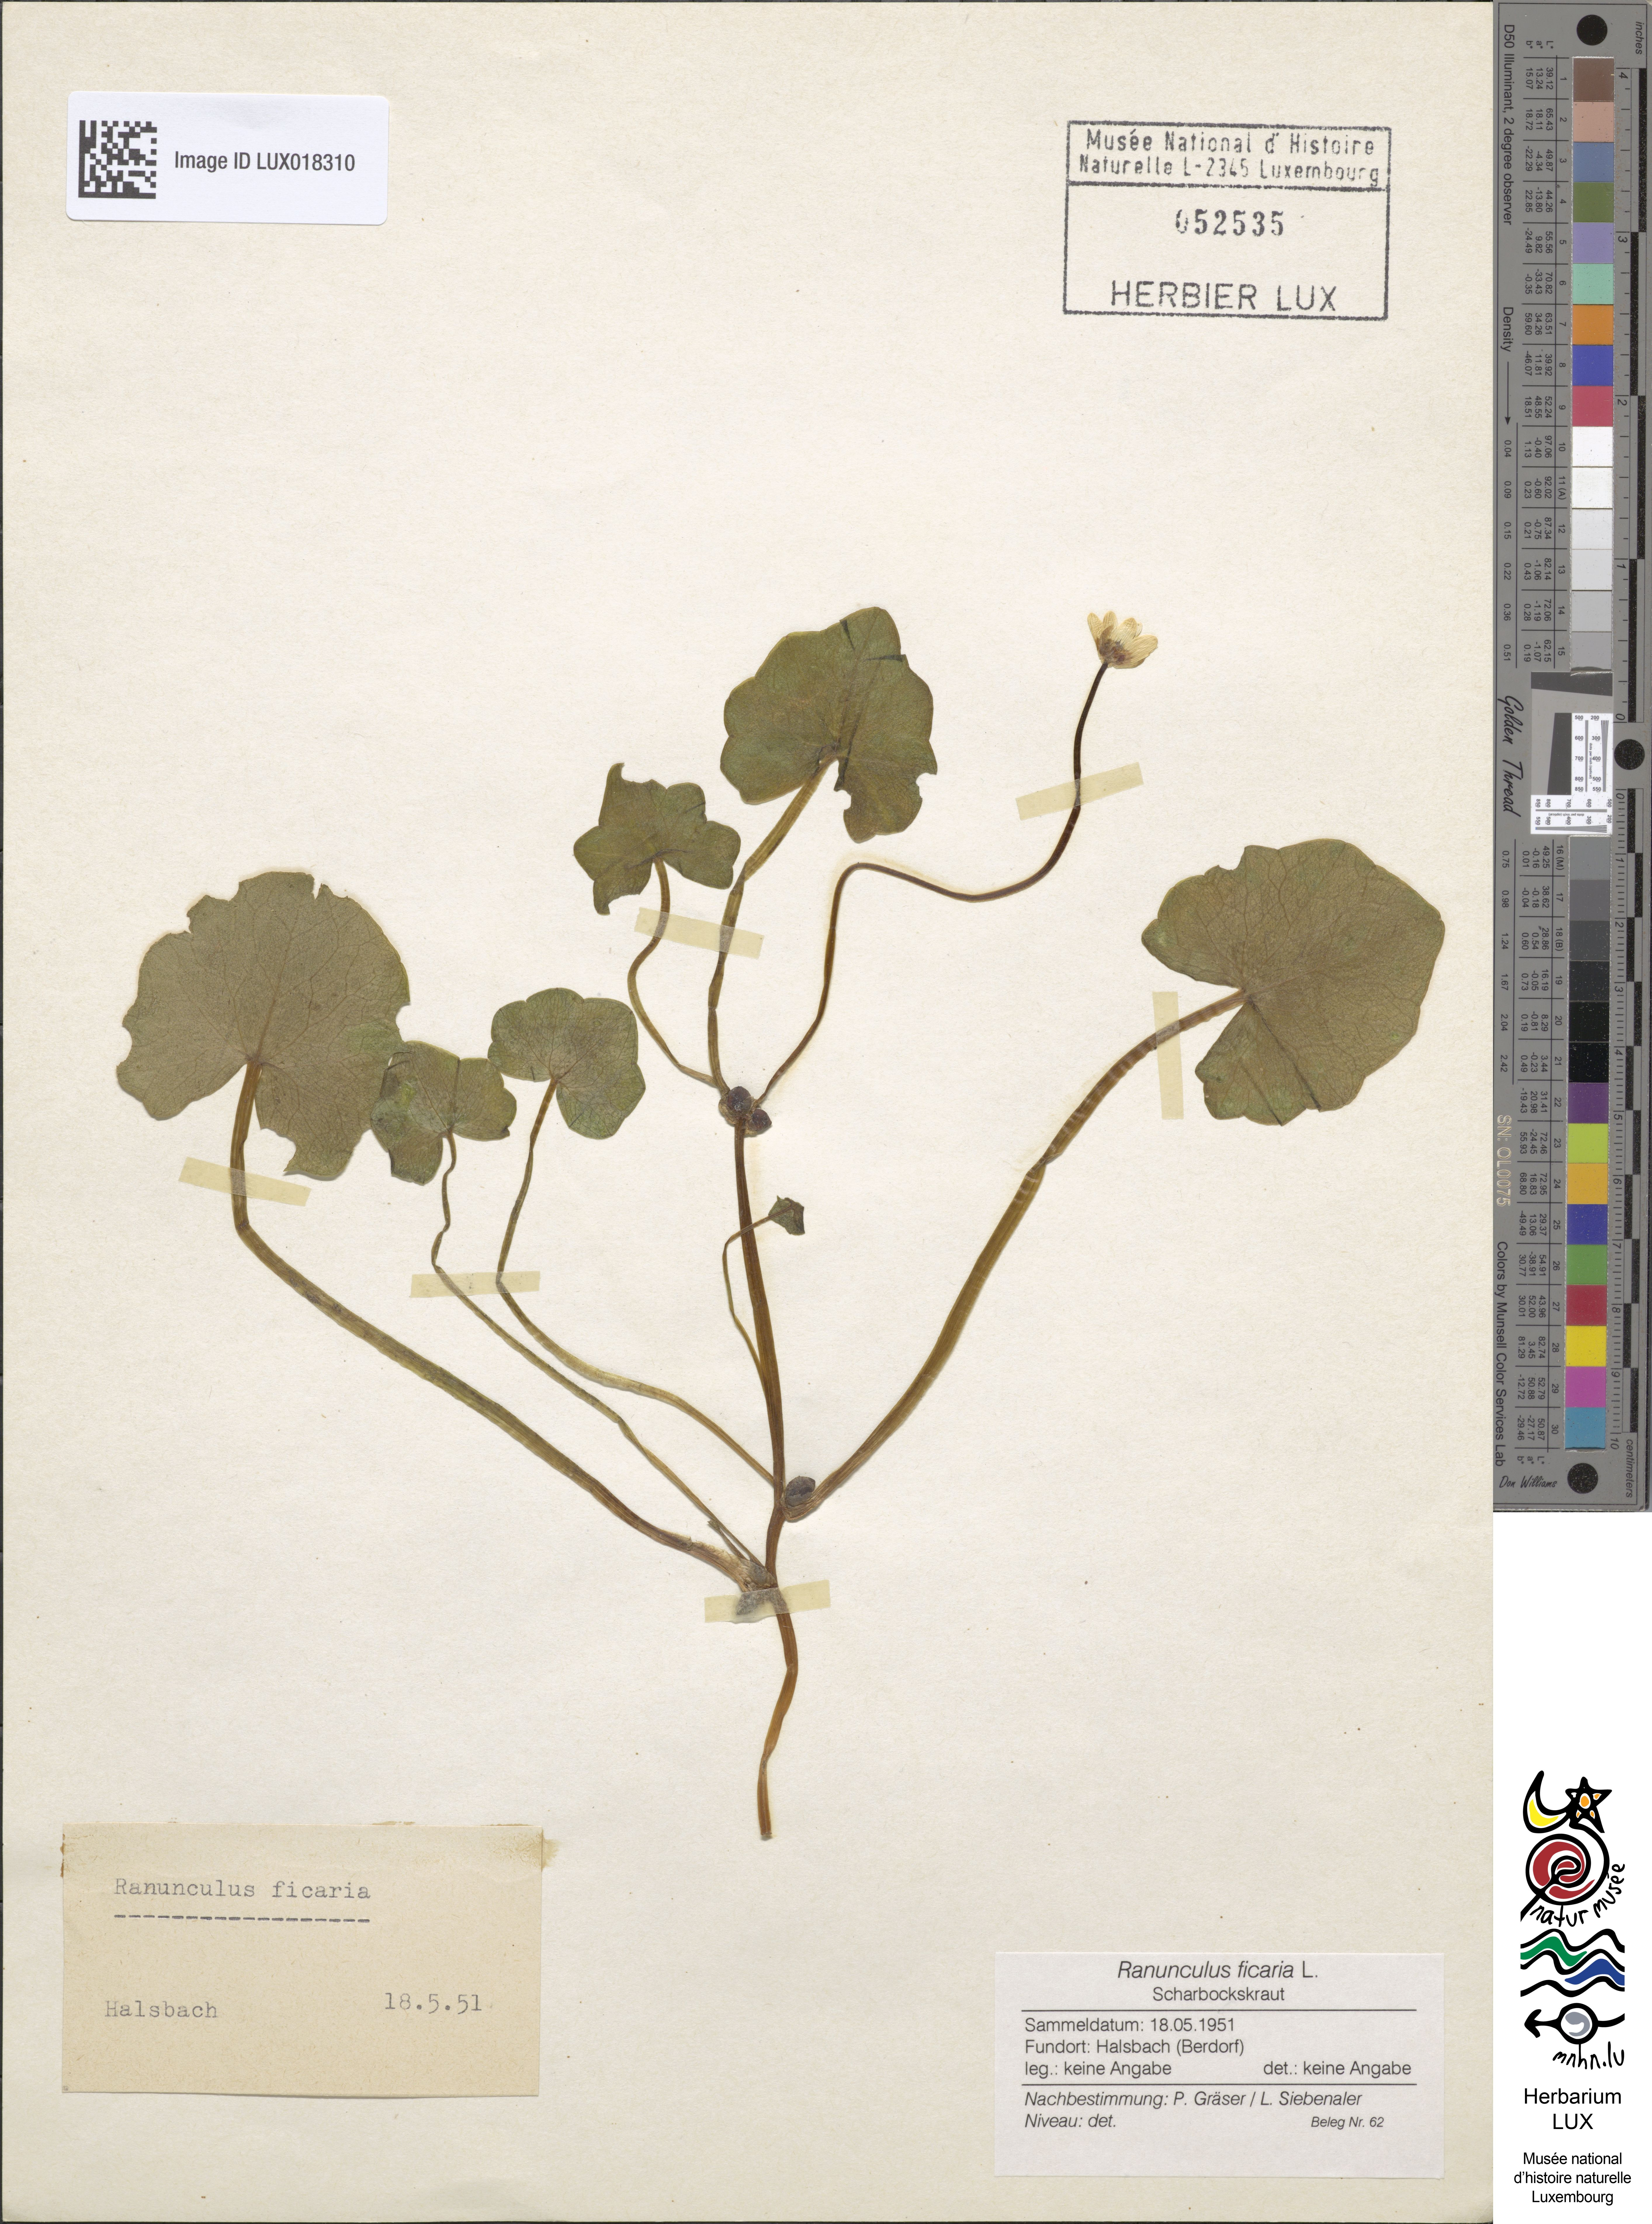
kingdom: Plantae
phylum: Tracheophyta
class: Magnoliopsida
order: Ranunculales
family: Ranunculaceae
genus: Ficaria
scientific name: Ficaria verna
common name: Lesser celandine
